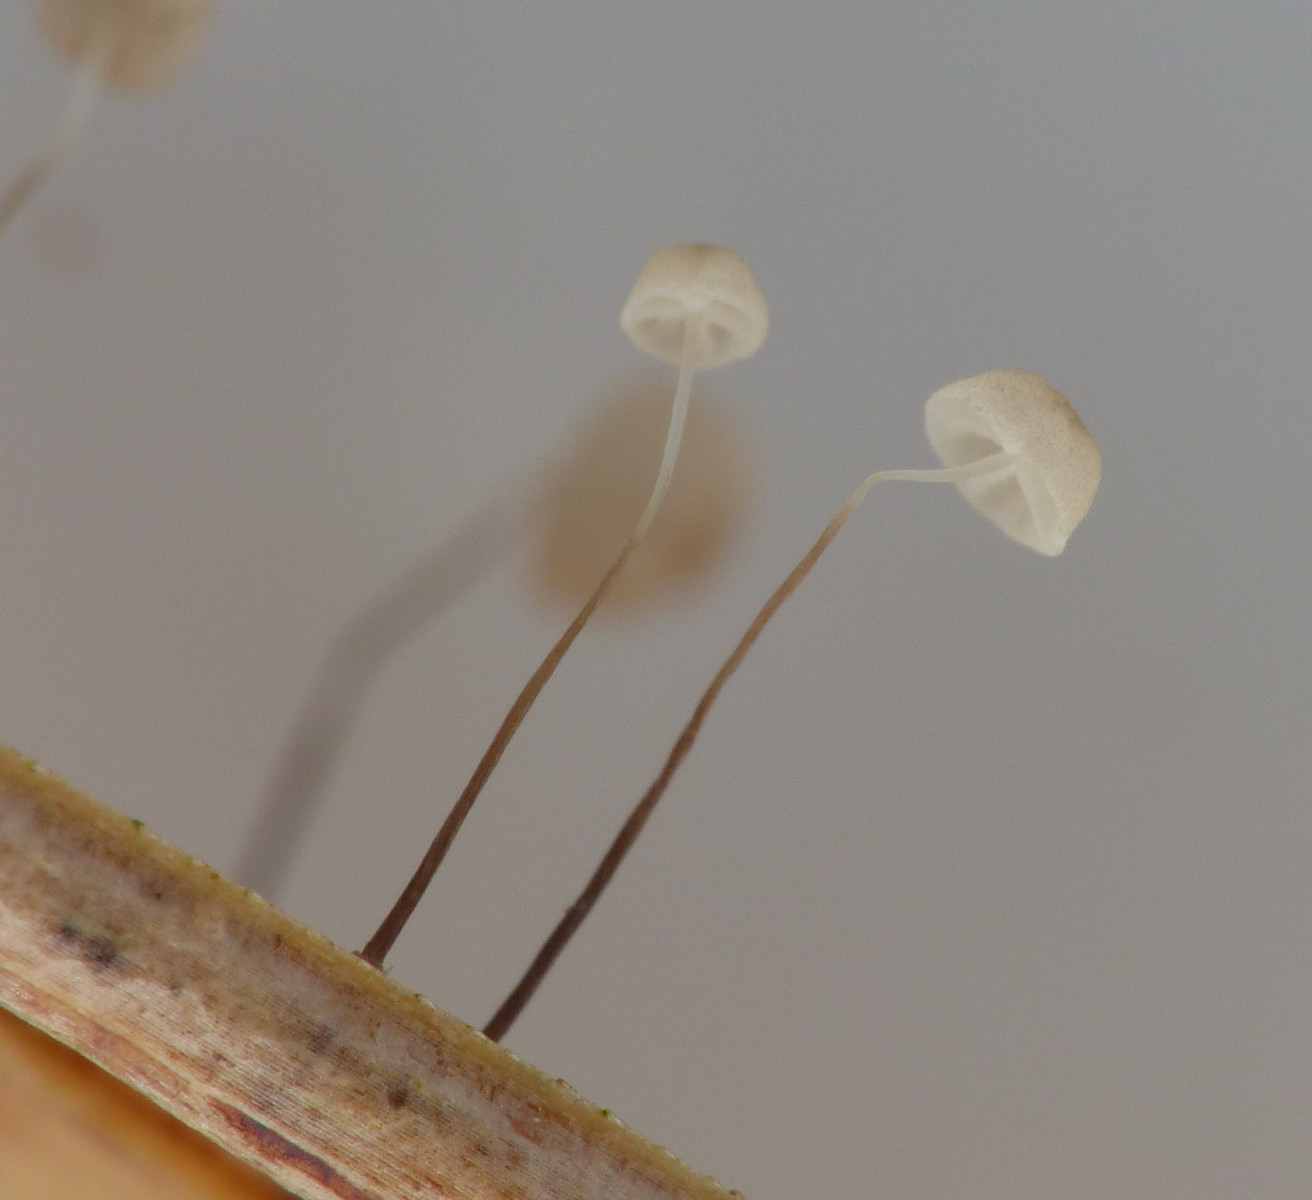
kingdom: Fungi
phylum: Basidiomycota
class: Agaricomycetes
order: Agaricales
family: Marasmiaceae
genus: Marasmius
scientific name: Marasmius limosus
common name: kær-bruskhat
